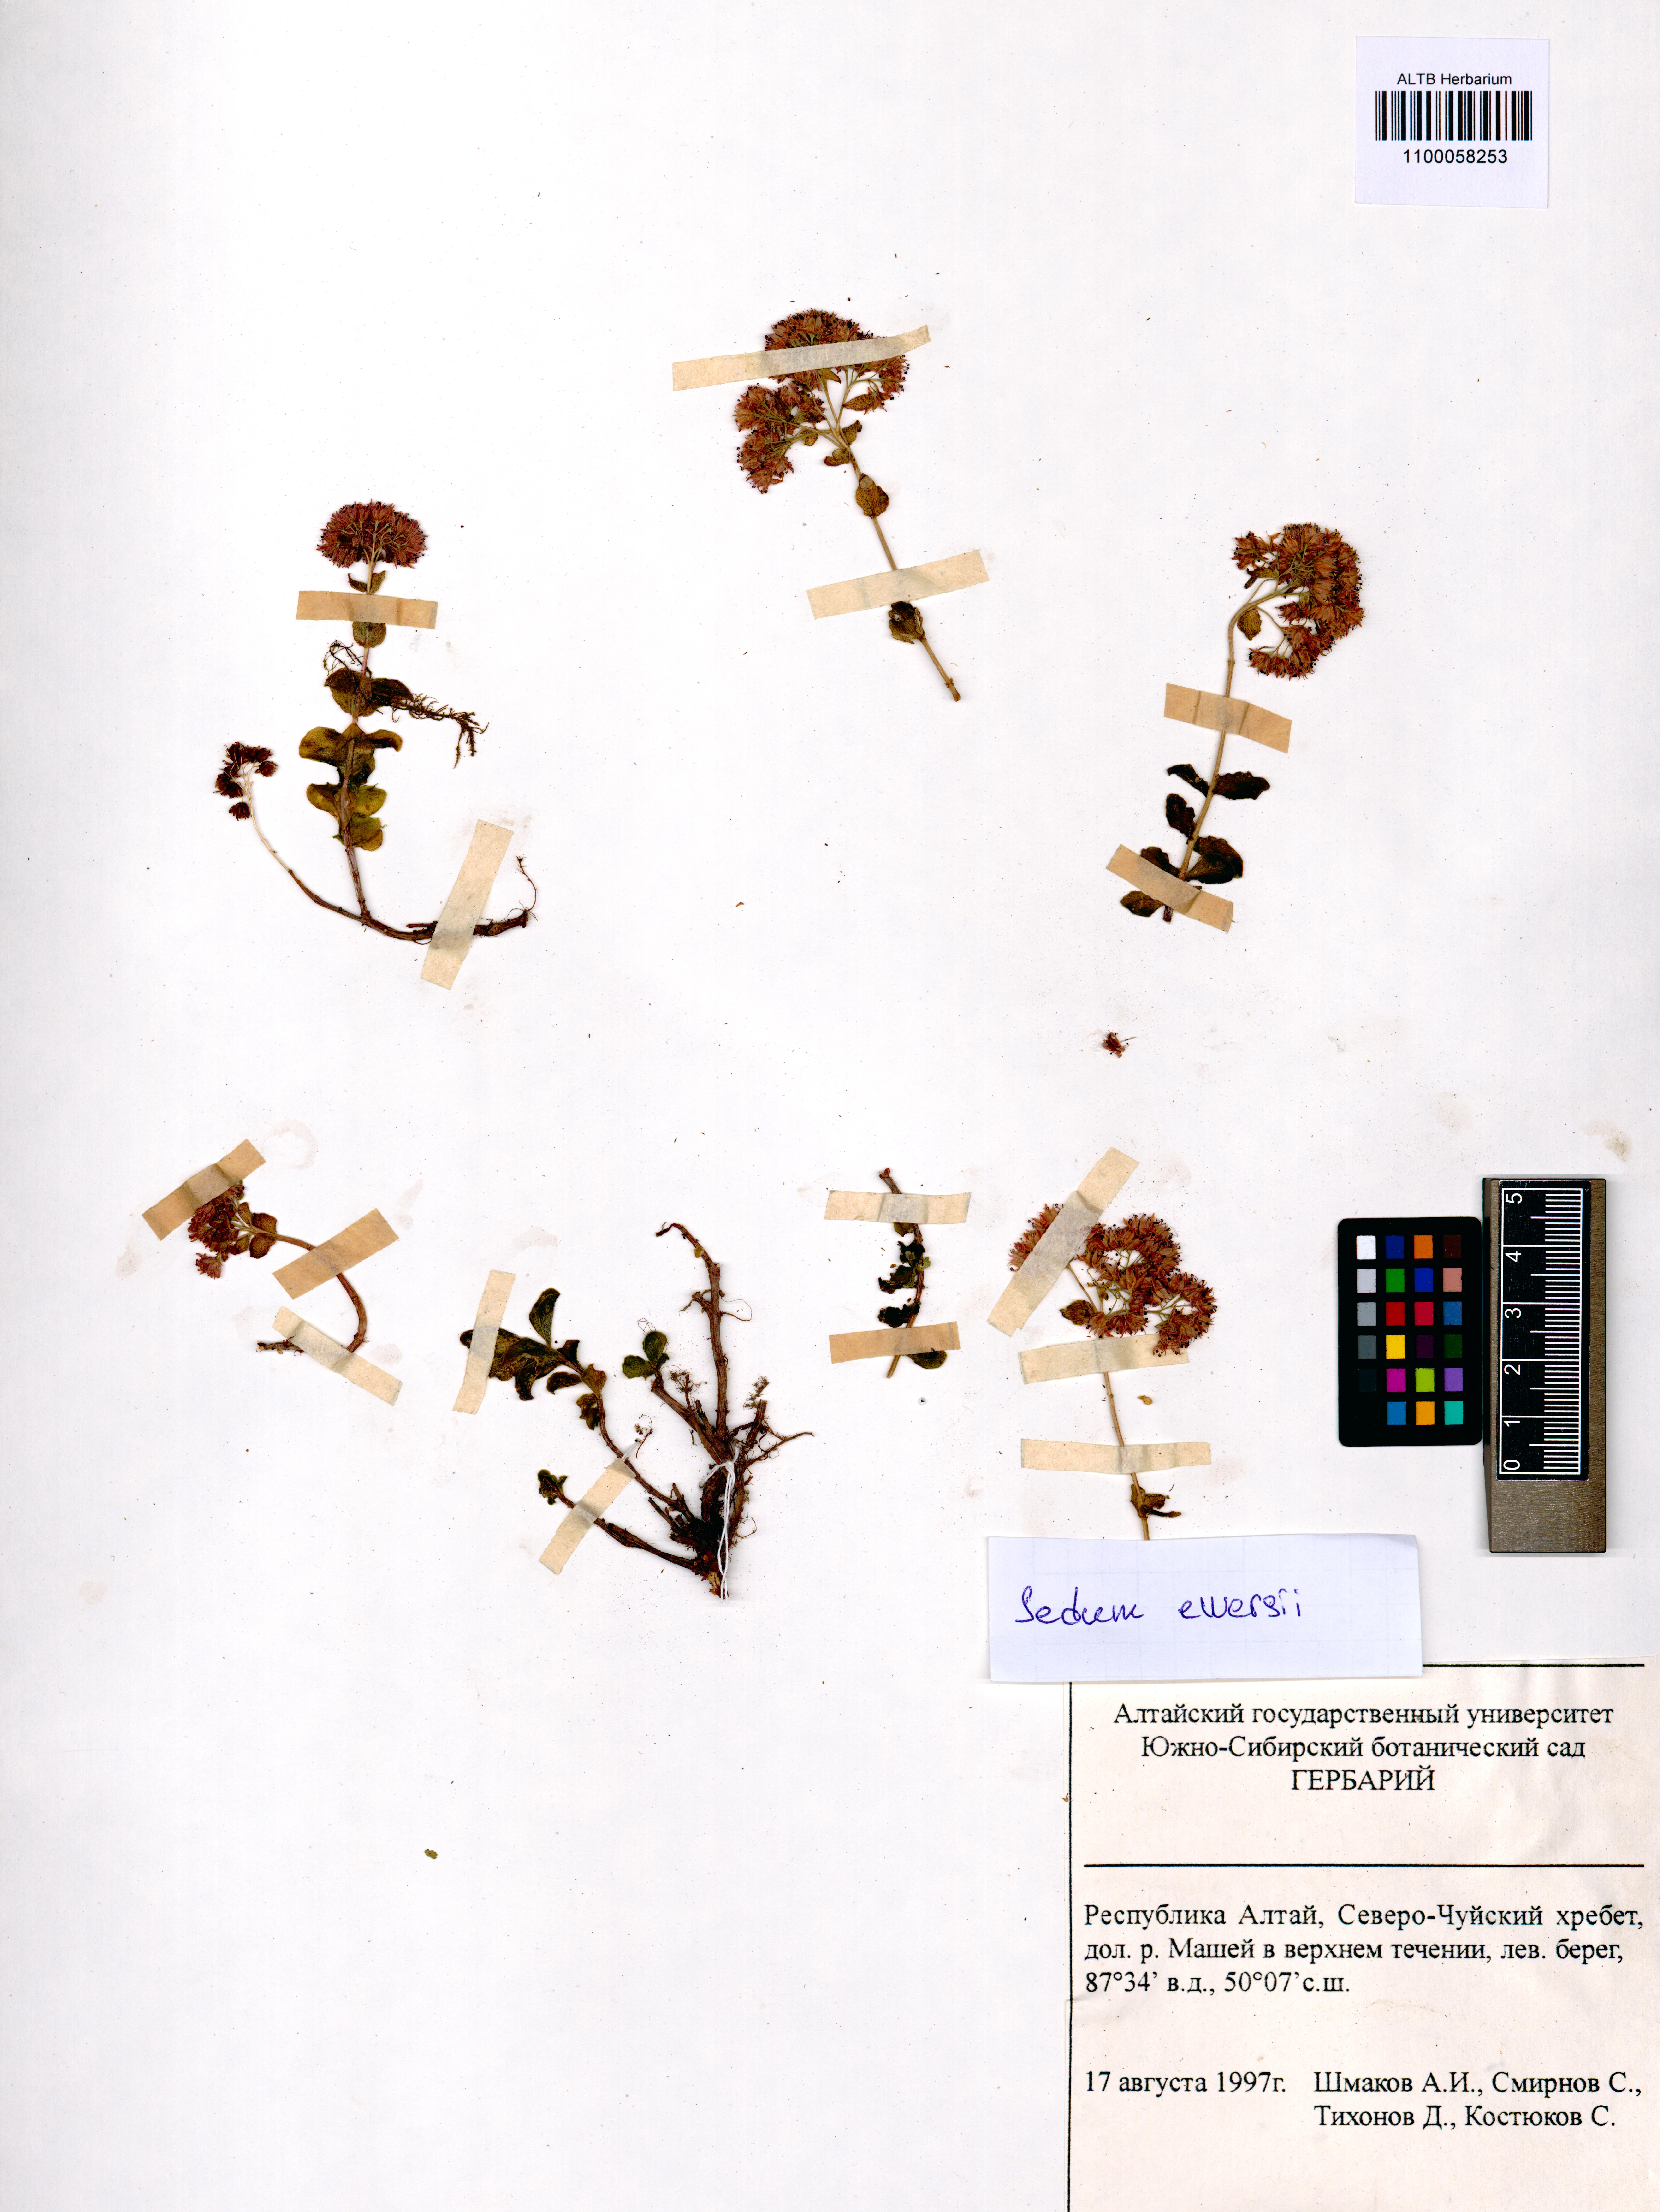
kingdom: Plantae
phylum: Tracheophyta
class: Magnoliopsida
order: Saxifragales
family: Crassulaceae
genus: Hylotelephium
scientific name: Hylotelephium ewersii
